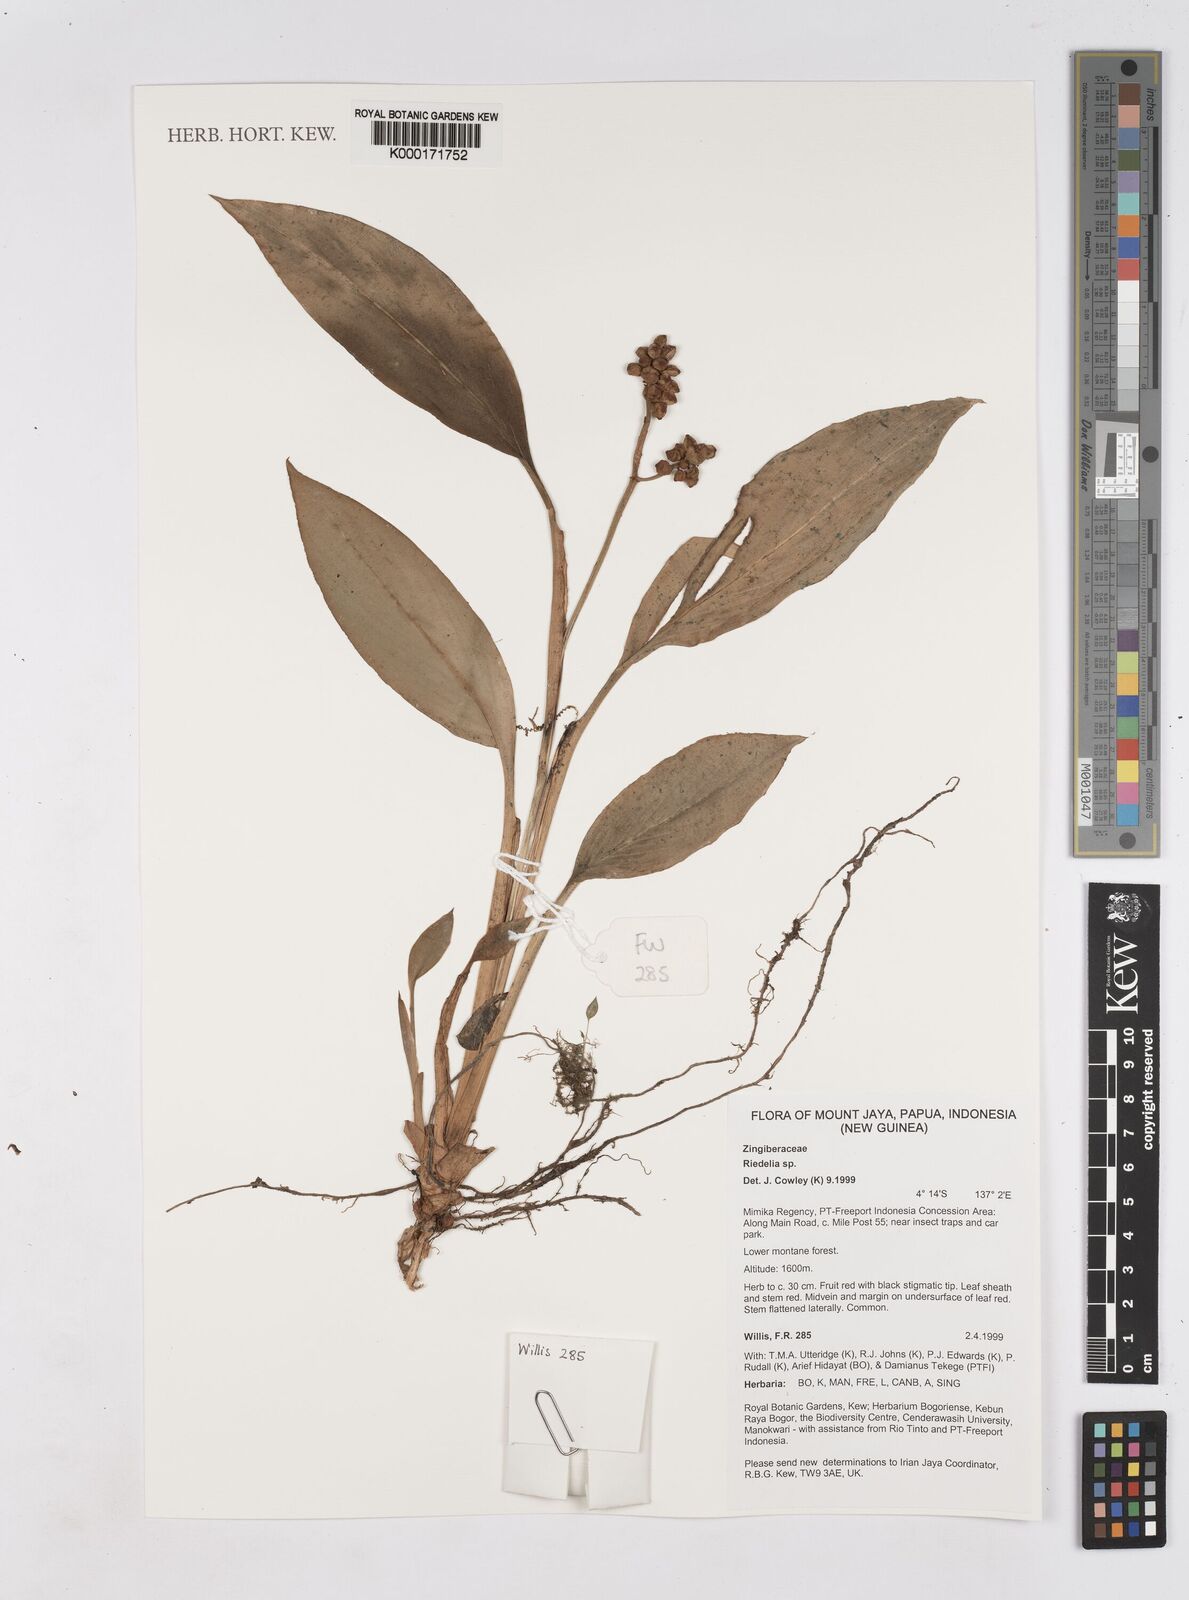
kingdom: Plantae
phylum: Tracheophyta
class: Liliopsida
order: Zingiberales
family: Zingiberaceae
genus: Riedelia
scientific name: Riedelia
